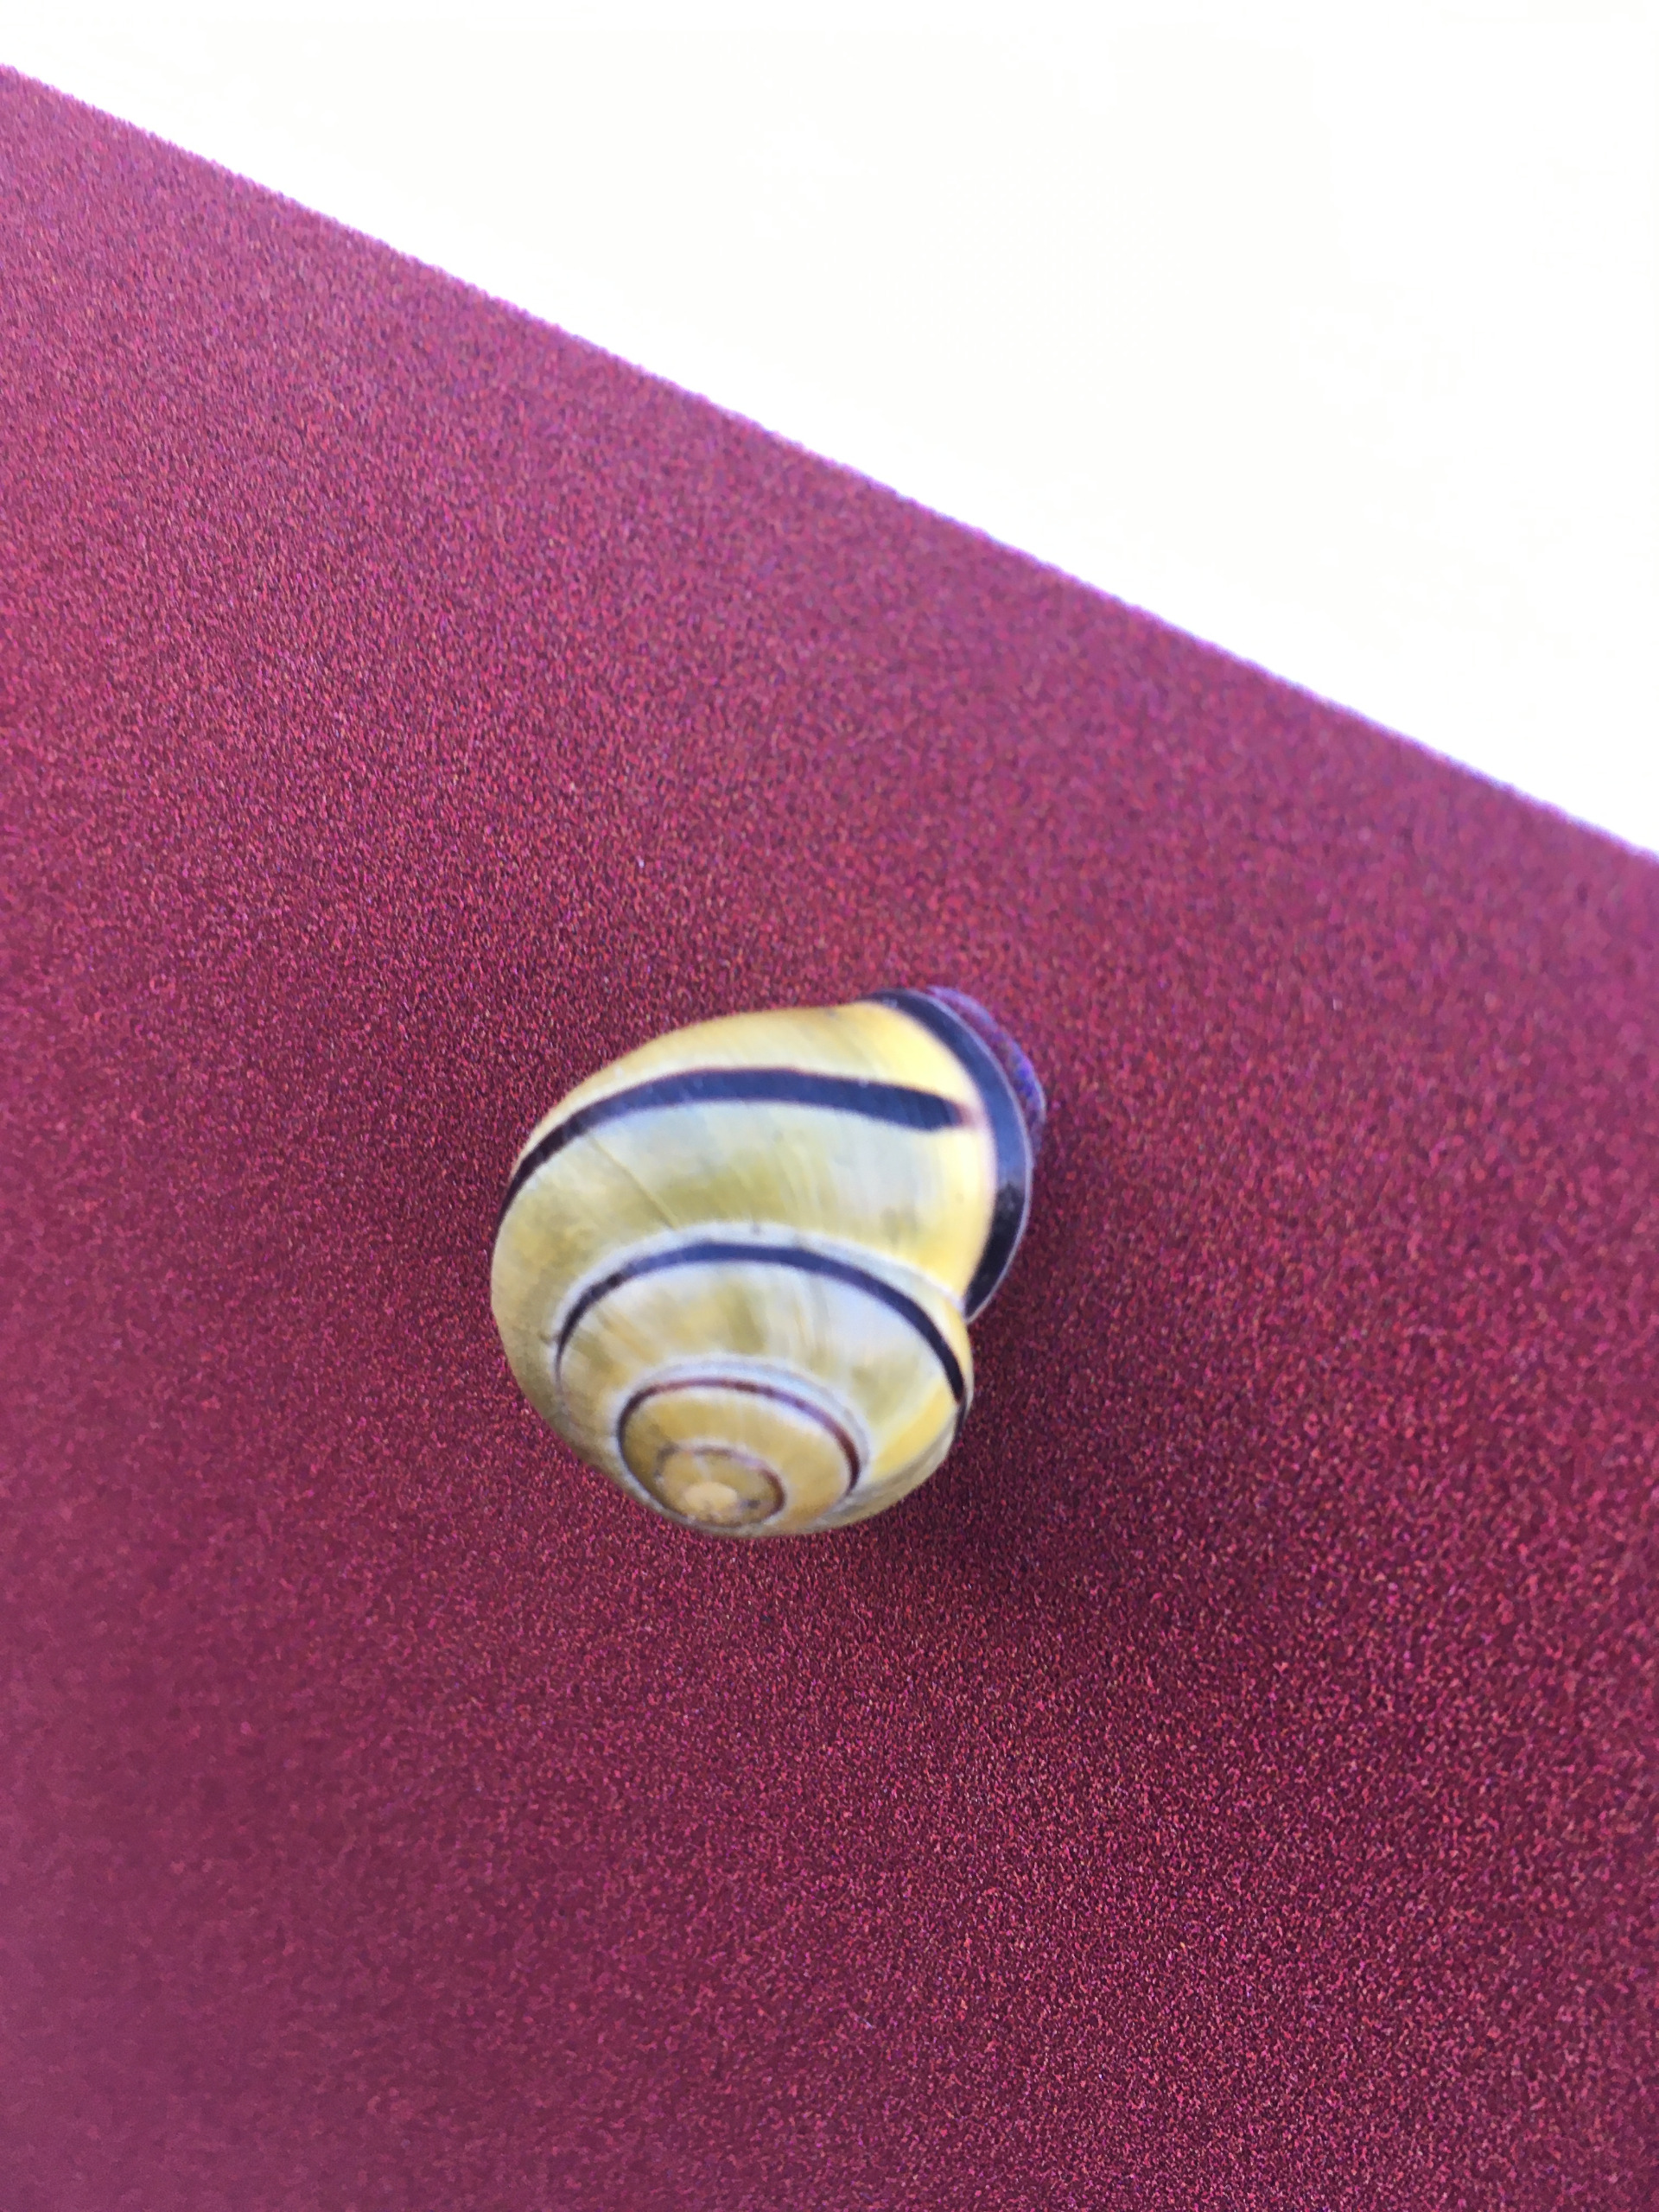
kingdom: Animalia
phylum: Mollusca
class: Gastropoda
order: Stylommatophora
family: Helicidae
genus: Cepaea
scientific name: Cepaea nemoralis
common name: Lundsnegl
